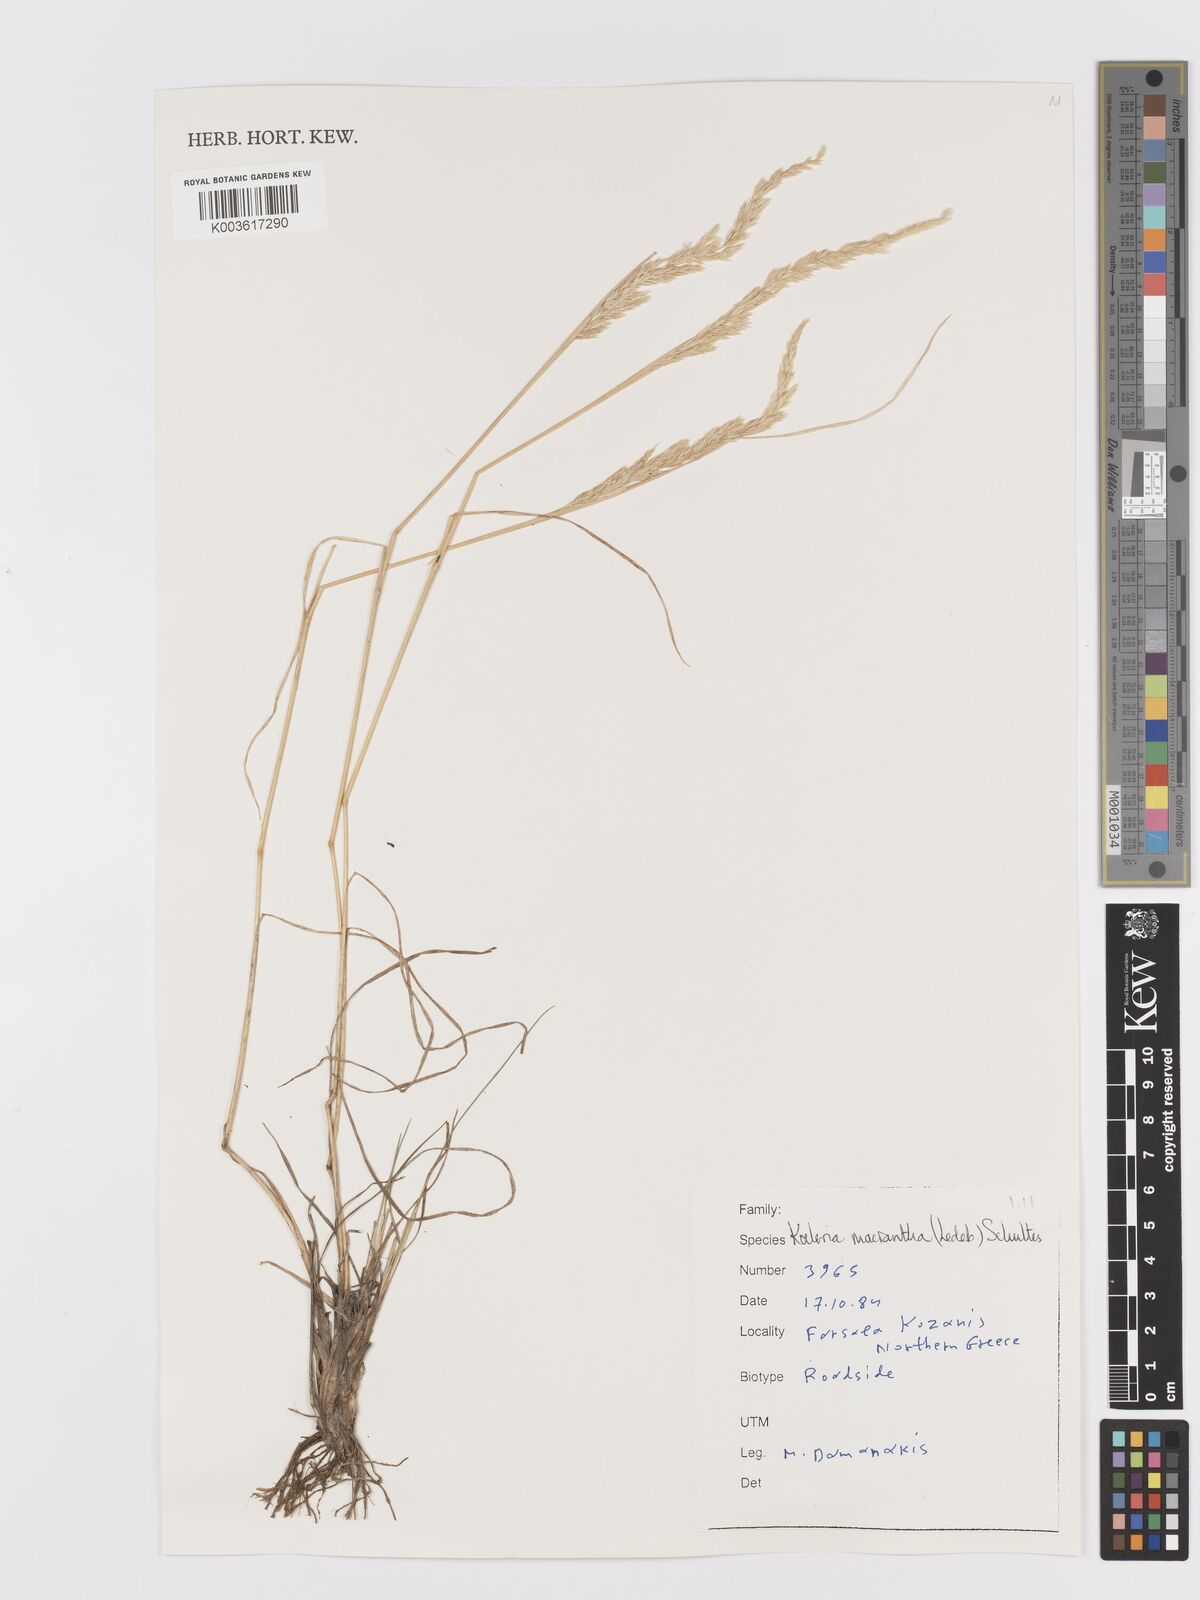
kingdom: Plantae
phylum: Tracheophyta
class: Liliopsida
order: Poales
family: Poaceae
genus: Koeleria
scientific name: Koeleria macrantha
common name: Crested hair-grass
